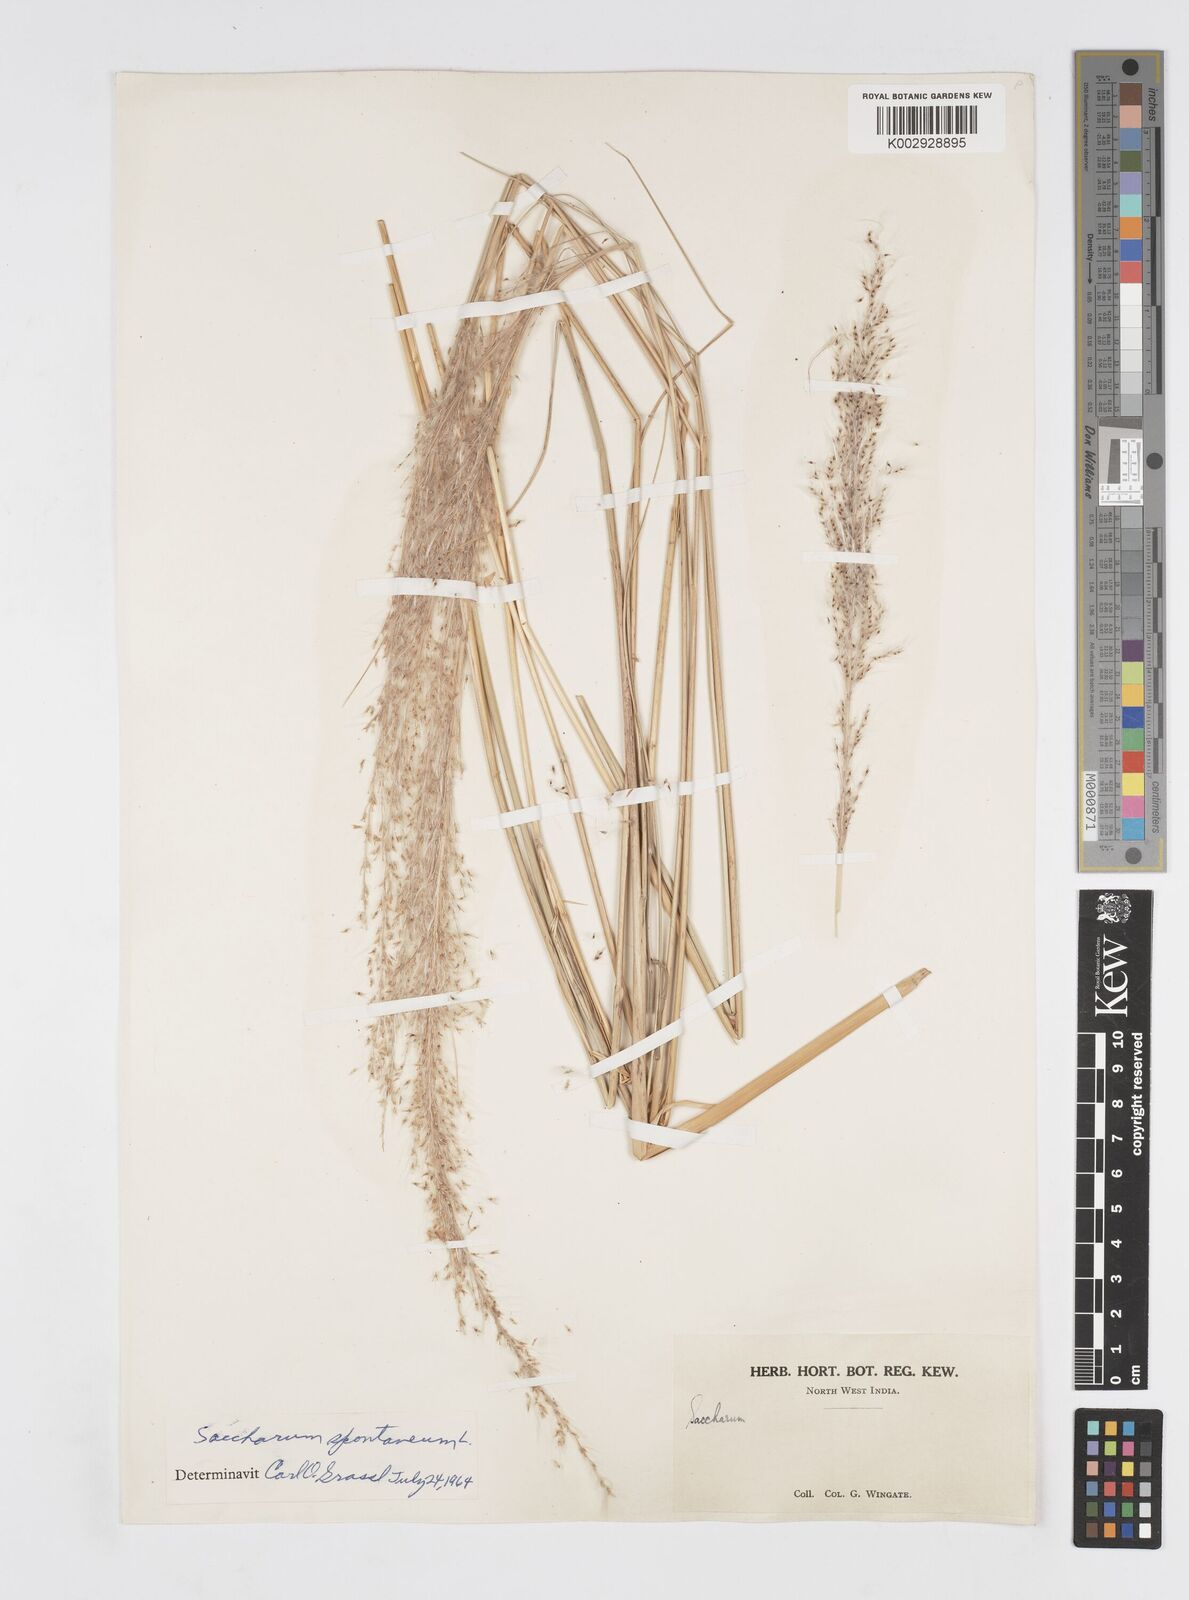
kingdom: Plantae
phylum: Tracheophyta
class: Liliopsida
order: Poales
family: Poaceae
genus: Saccharum
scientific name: Saccharum spontaneum
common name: Wild sugarcane
